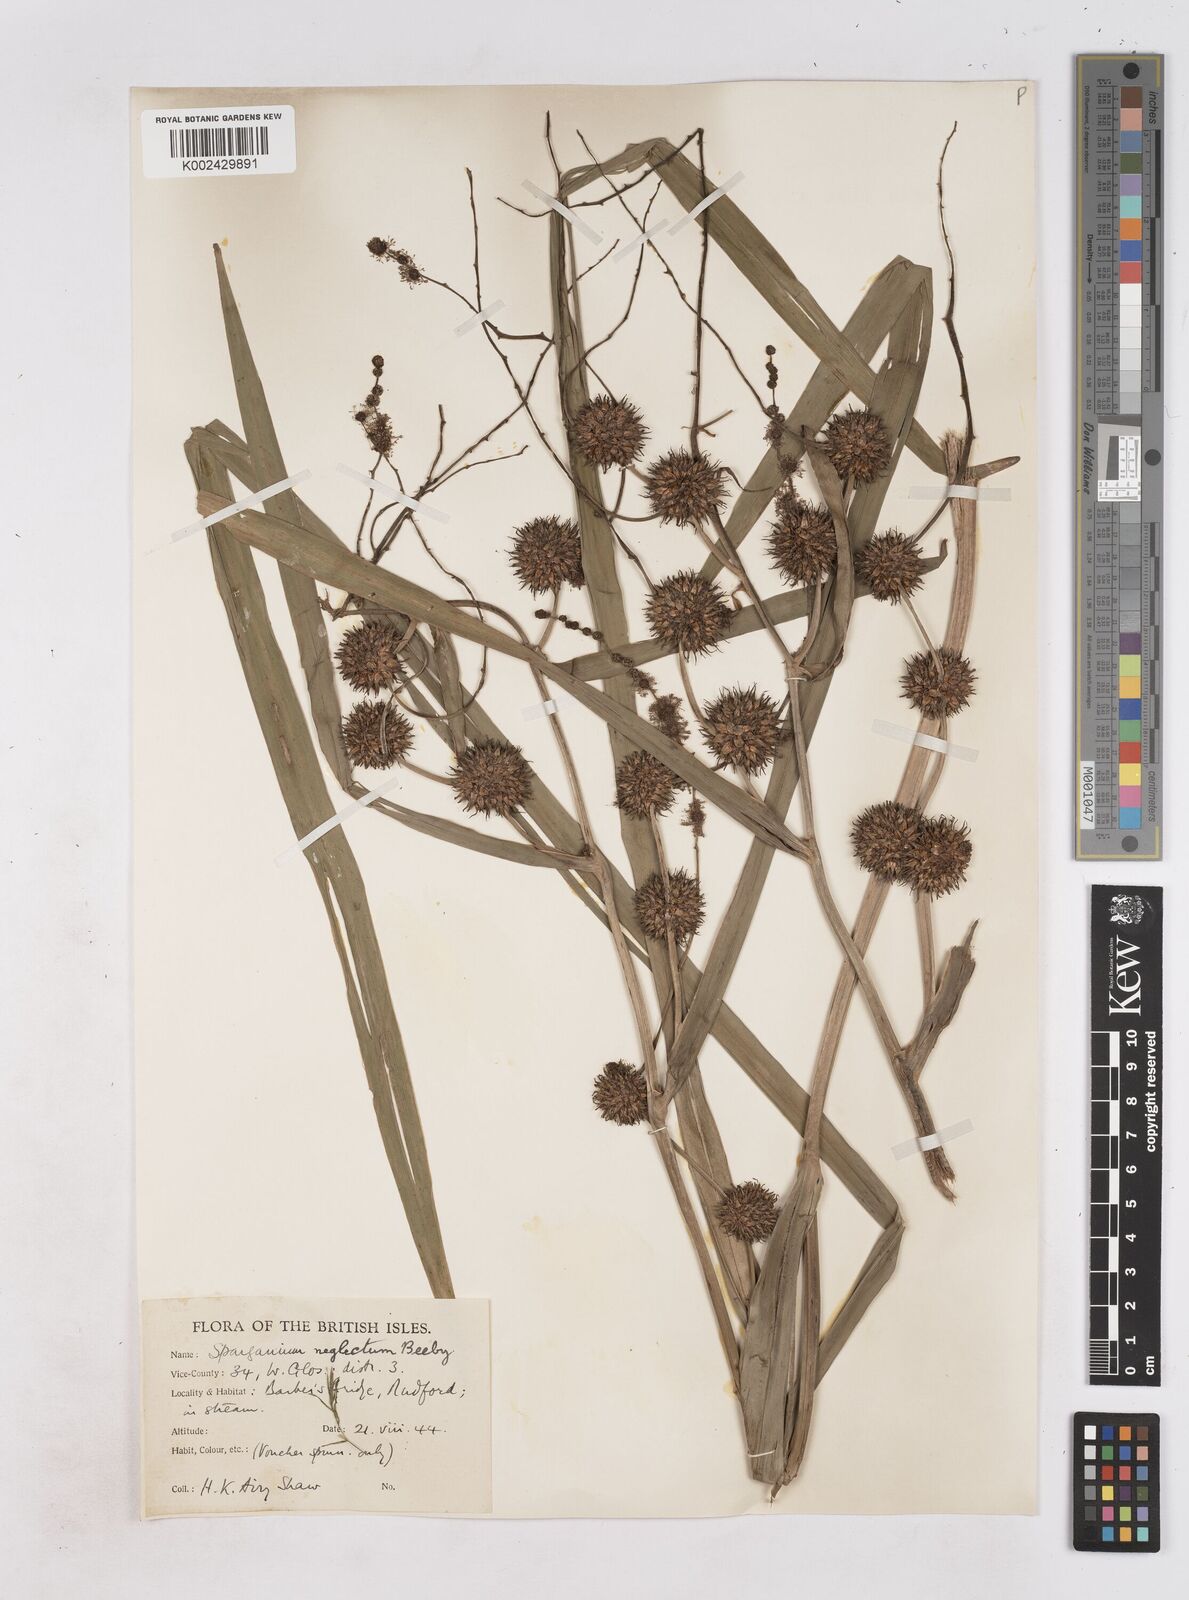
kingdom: Plantae
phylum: Tracheophyta
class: Liliopsida
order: Poales
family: Typhaceae
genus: Sparganium
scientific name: Sparganium erectum
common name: Branched bur-reed
